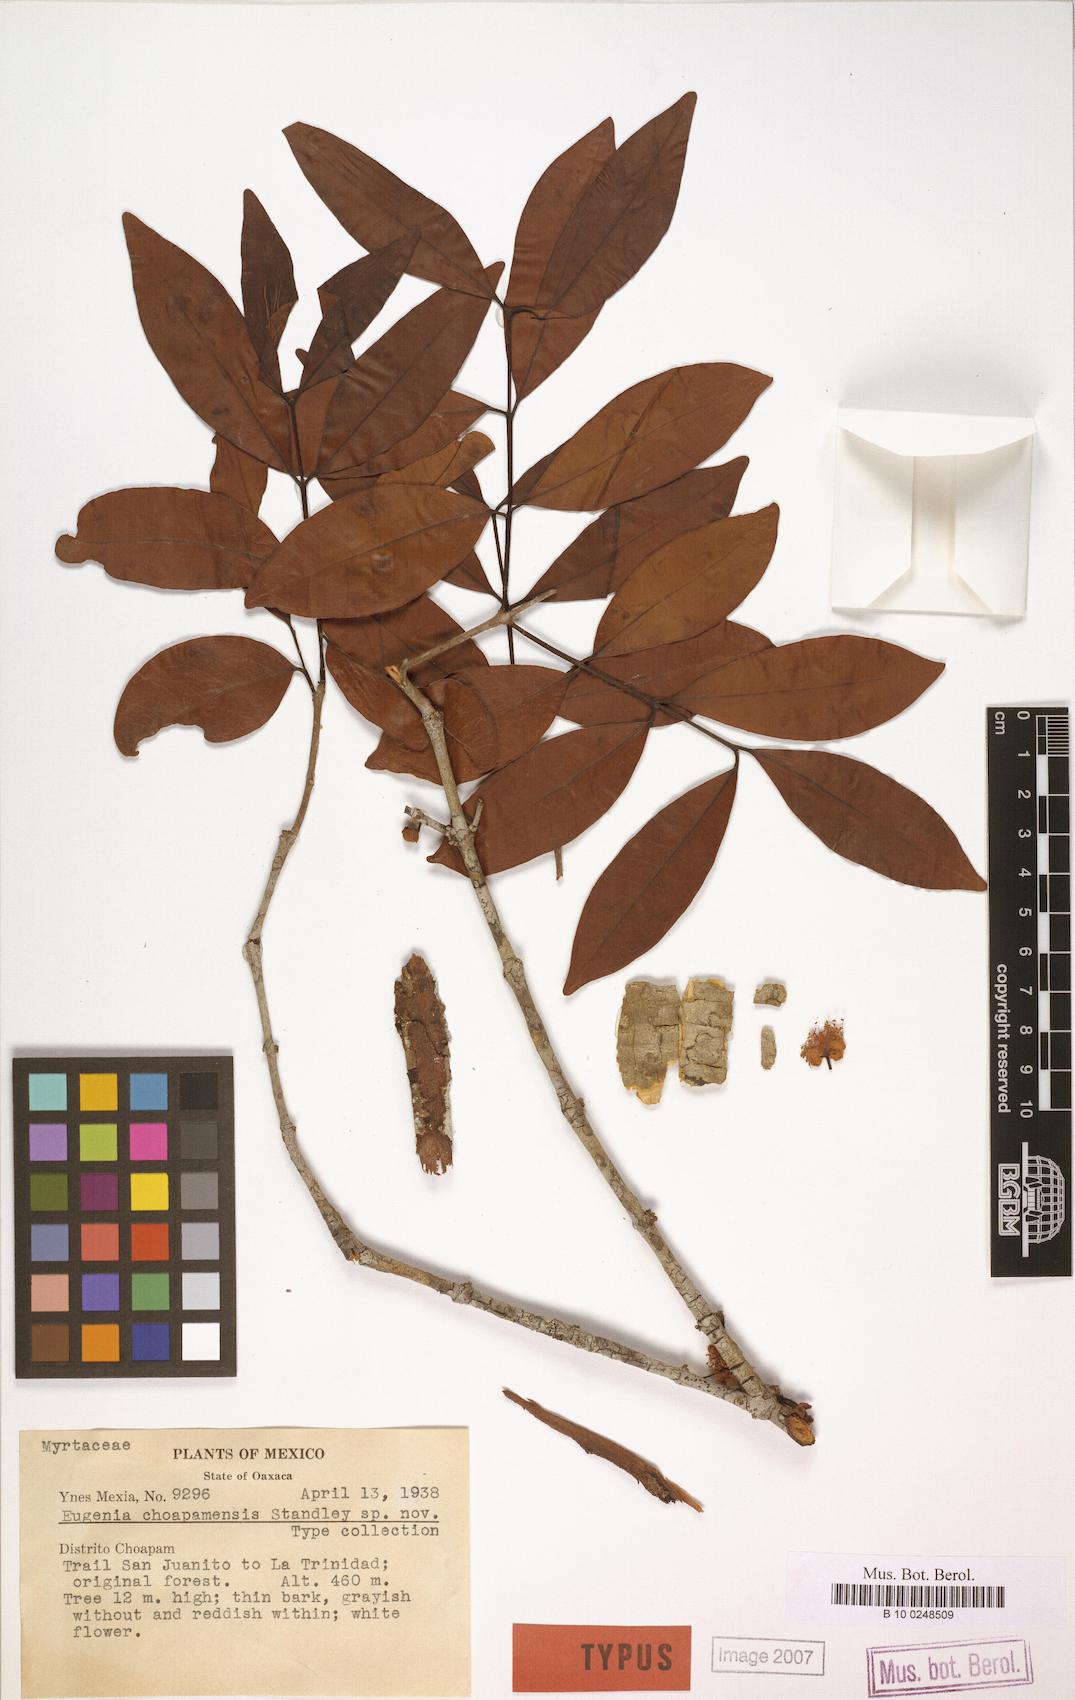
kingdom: Plantae
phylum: Tracheophyta
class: Magnoliopsida
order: Myrtales
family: Myrtaceae
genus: Eugenia
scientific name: Eugenia choapamensis
